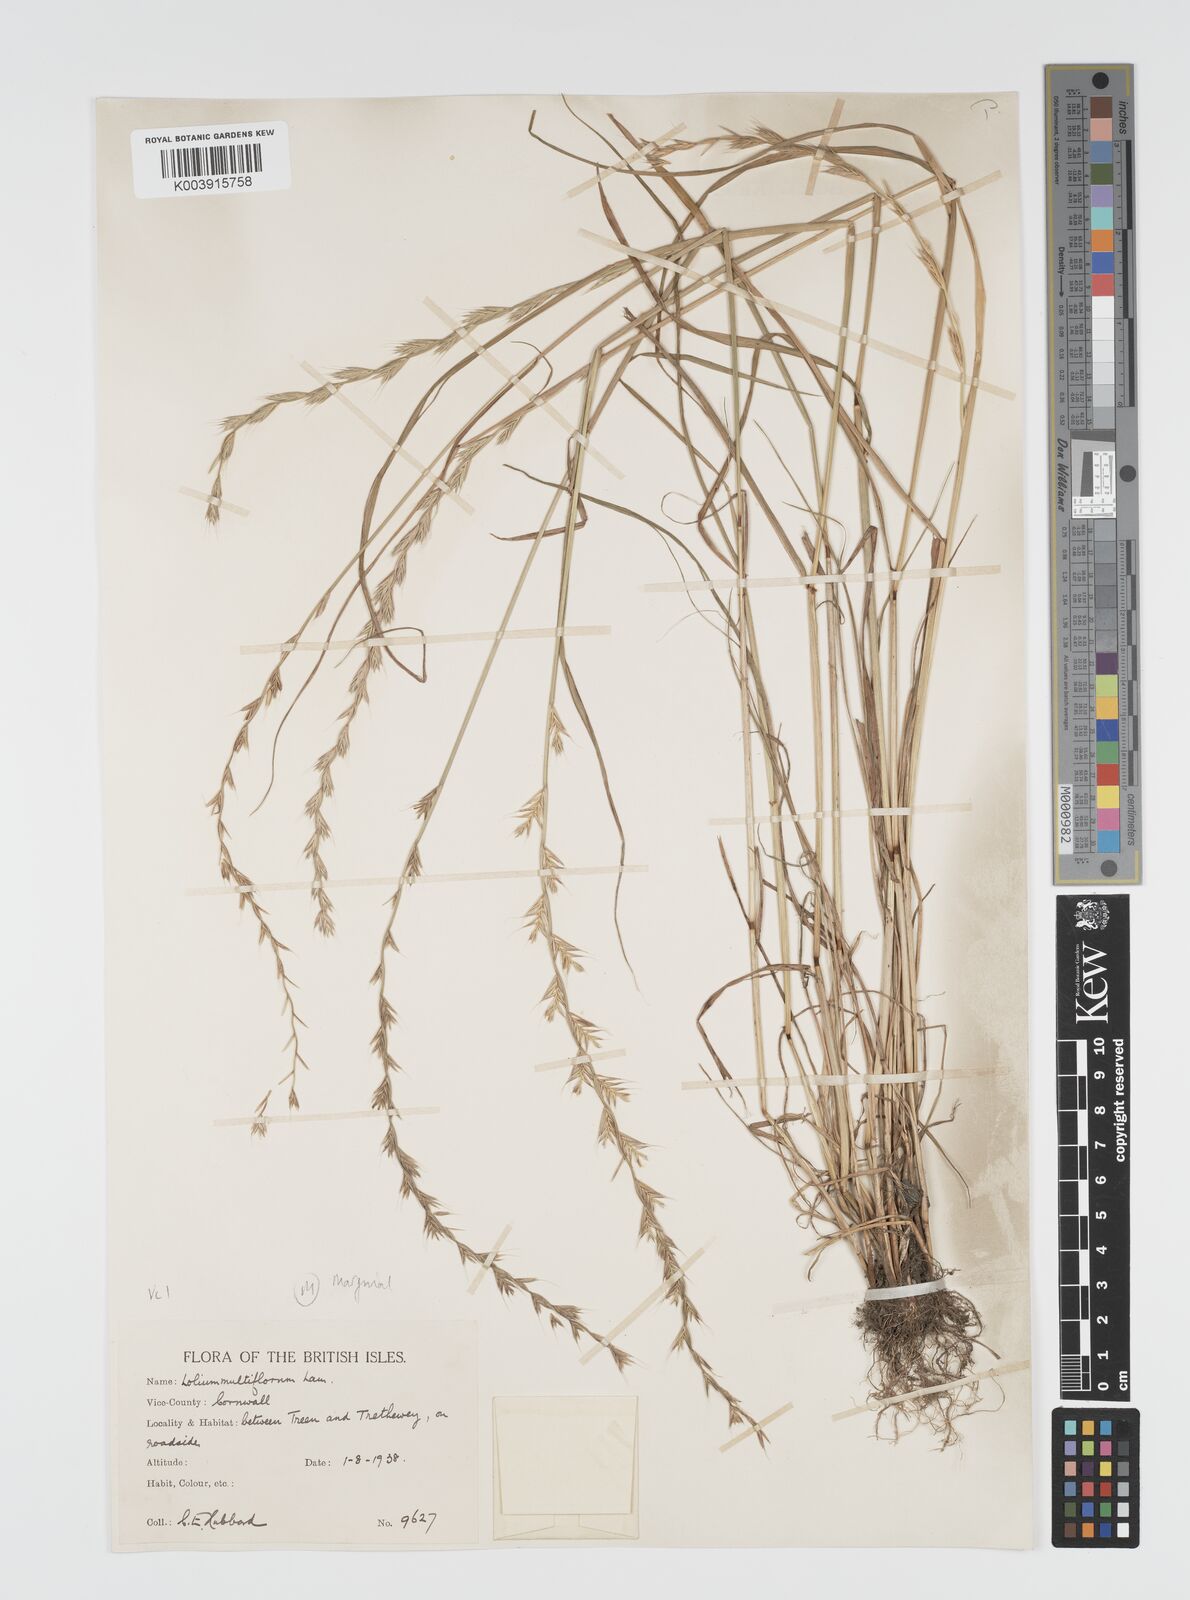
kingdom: Plantae
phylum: Tracheophyta
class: Liliopsida
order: Poales
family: Poaceae
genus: Lolium
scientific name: Lolium multiflorum
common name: Annual ryegrass
